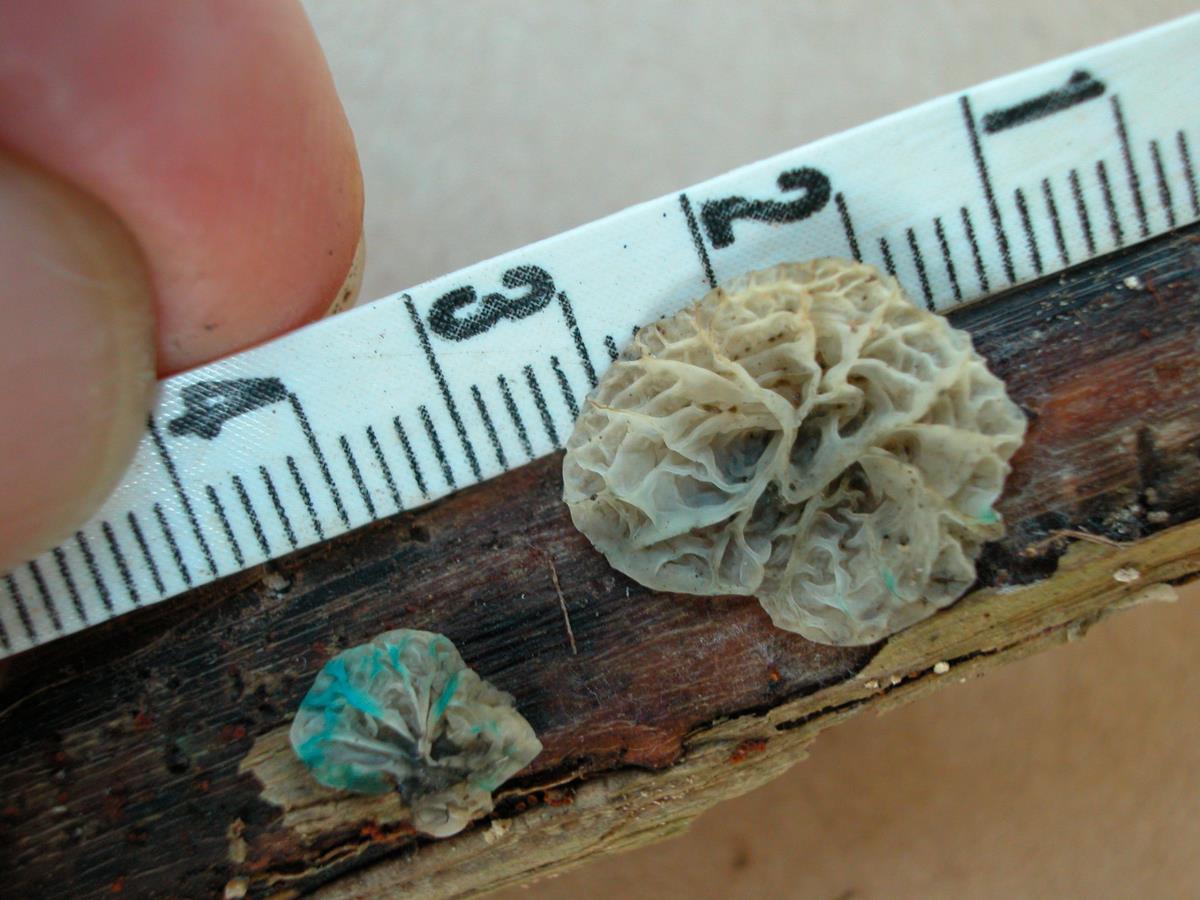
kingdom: Fungi
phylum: Basidiomycota
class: Agaricomycetes
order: Agaricales
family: Marasmiaceae
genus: Campanella
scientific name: Campanella
